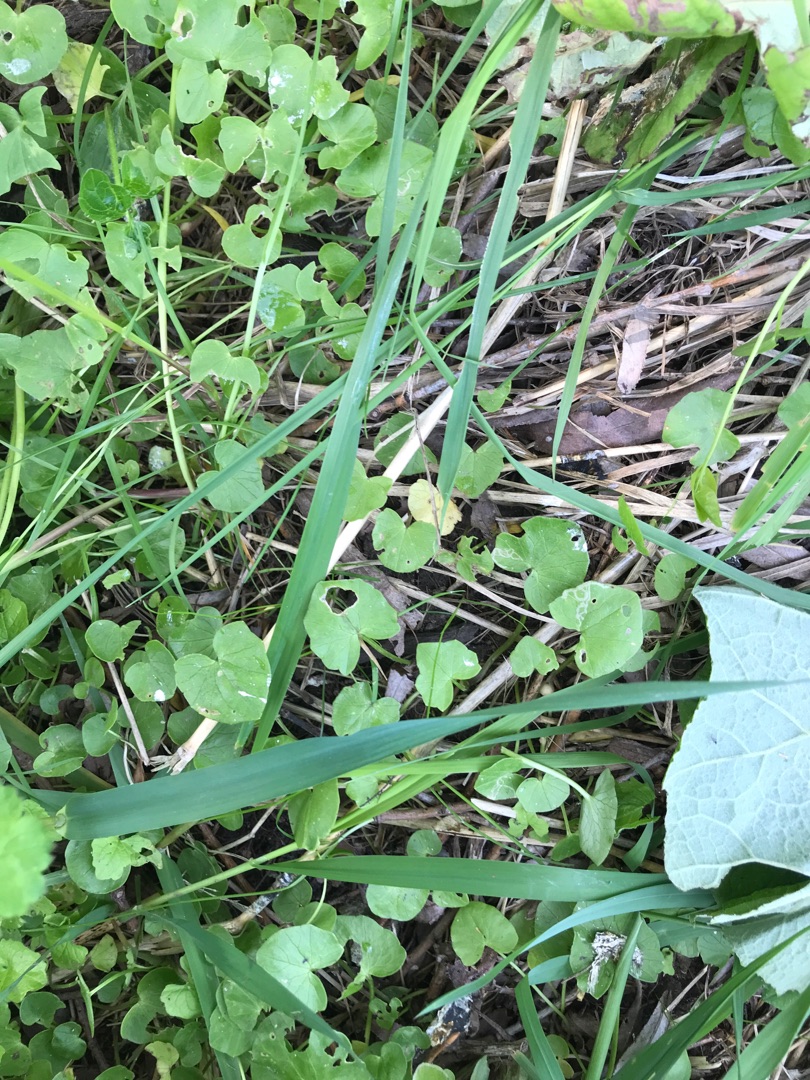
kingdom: Plantae
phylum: Tracheophyta
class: Magnoliopsida
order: Ranunculales
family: Ranunculaceae
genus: Ficaria
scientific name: Ficaria verna
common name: Vorterod
